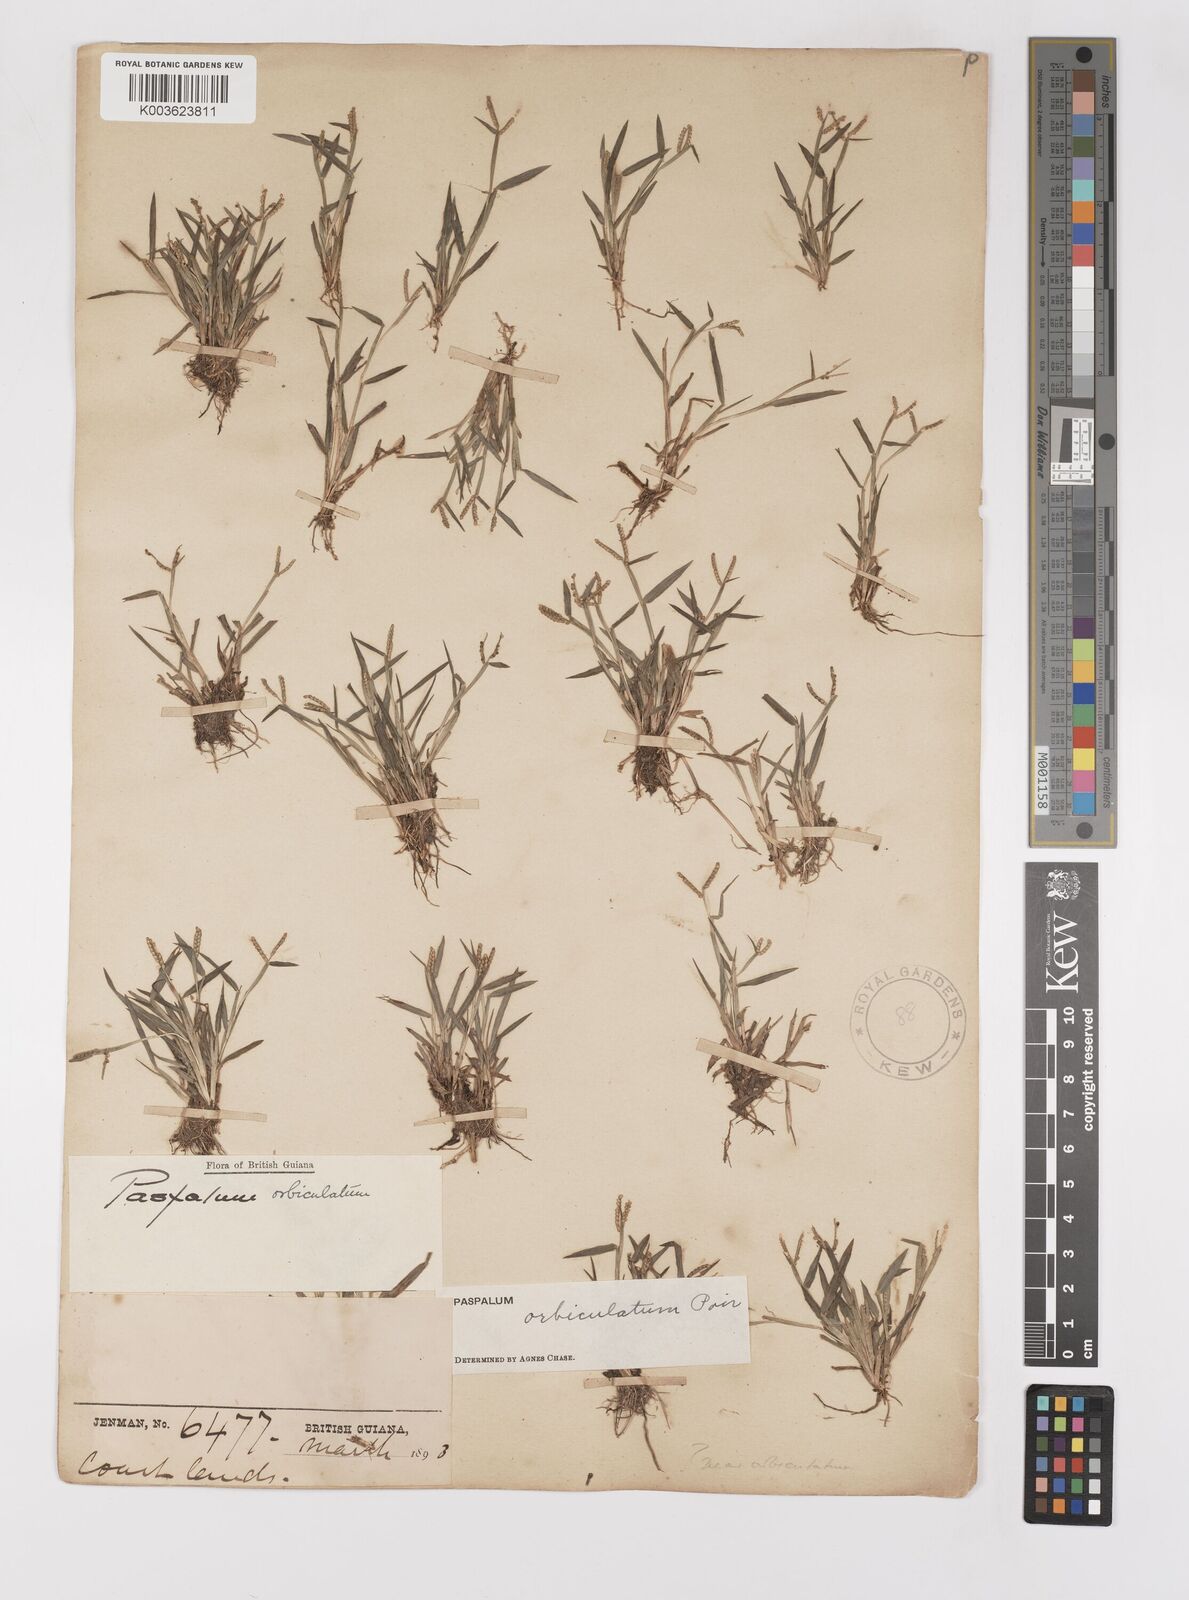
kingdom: Plantae
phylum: Tracheophyta
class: Liliopsida
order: Poales
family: Poaceae
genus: Paspalum
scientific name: Paspalum orbiculatum
